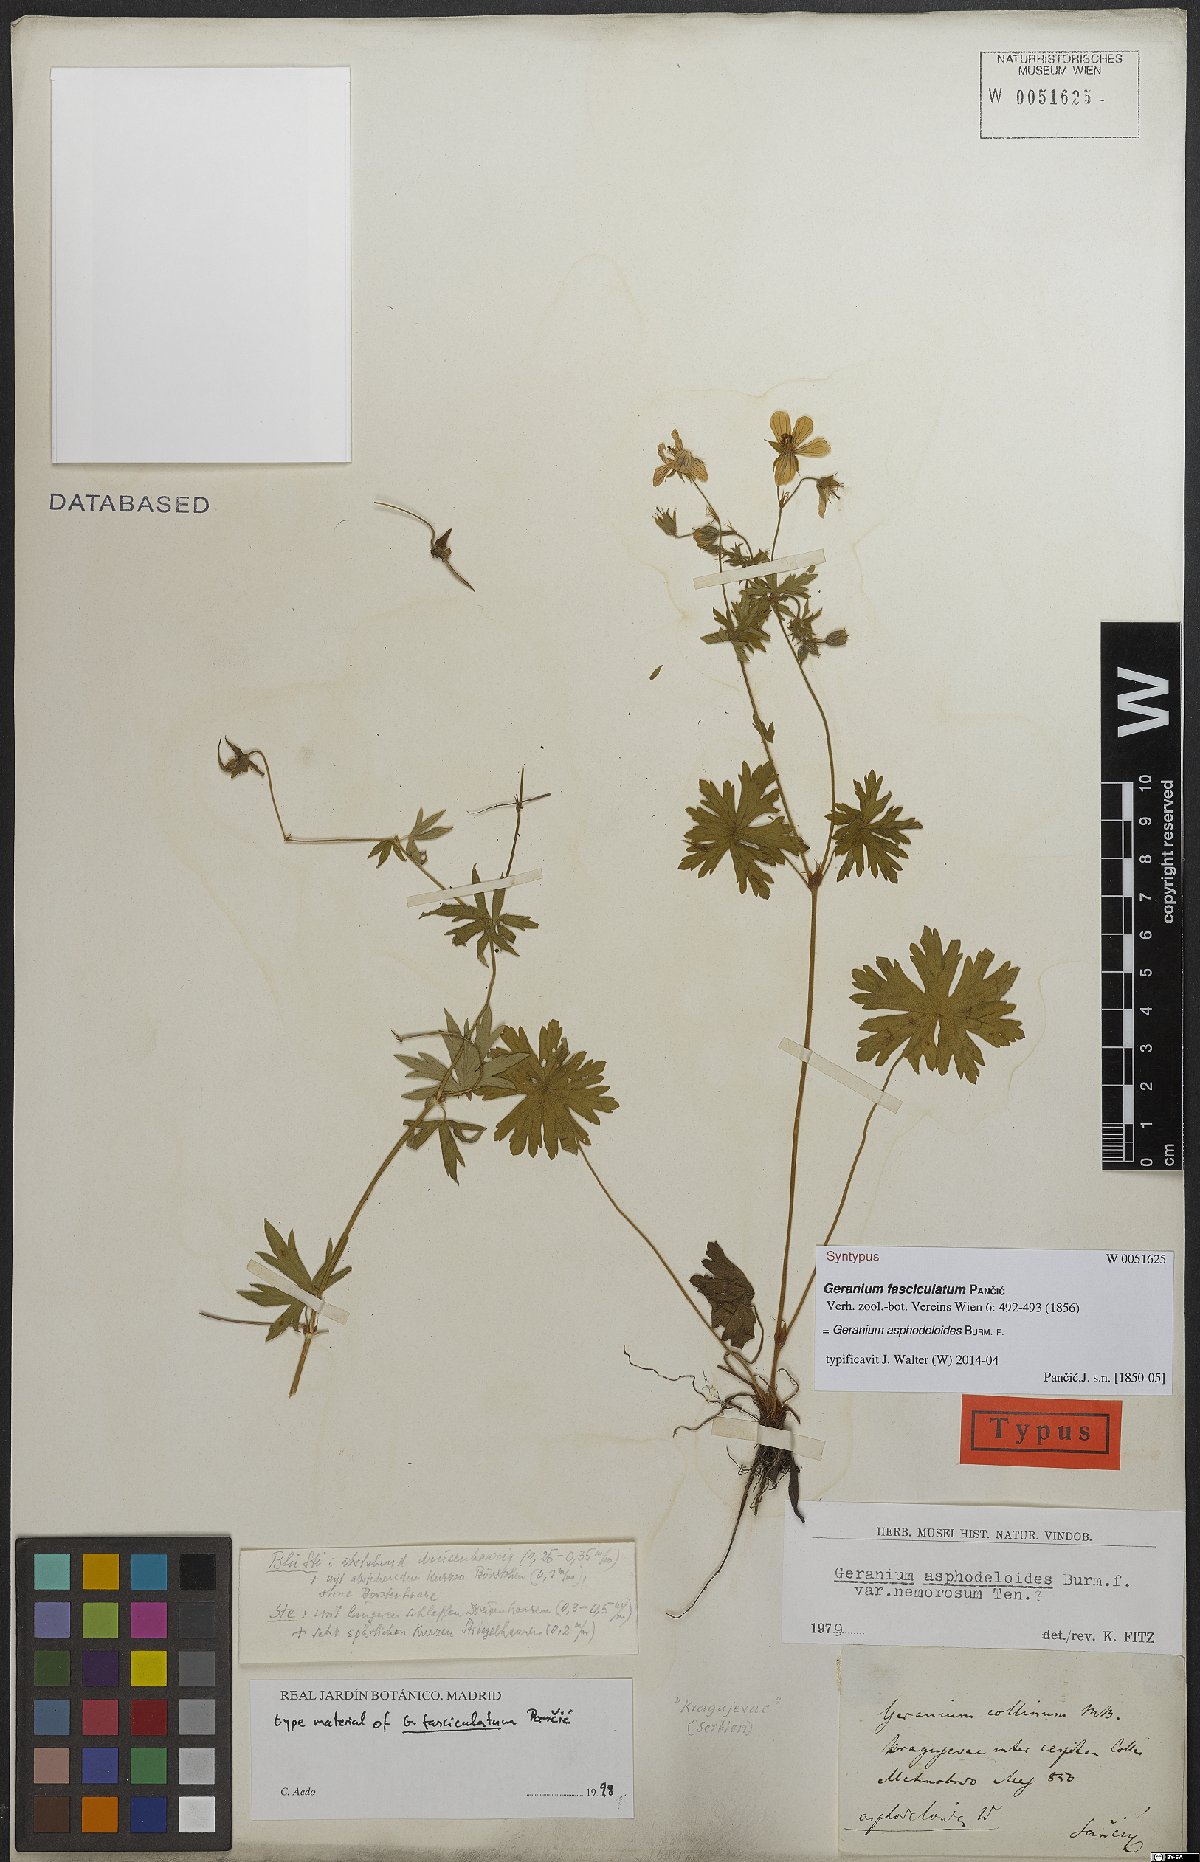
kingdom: Plantae
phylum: Tracheophyta
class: Magnoliopsida
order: Geraniales
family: Geraniaceae
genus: Geranium
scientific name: Geranium asphodeloides
